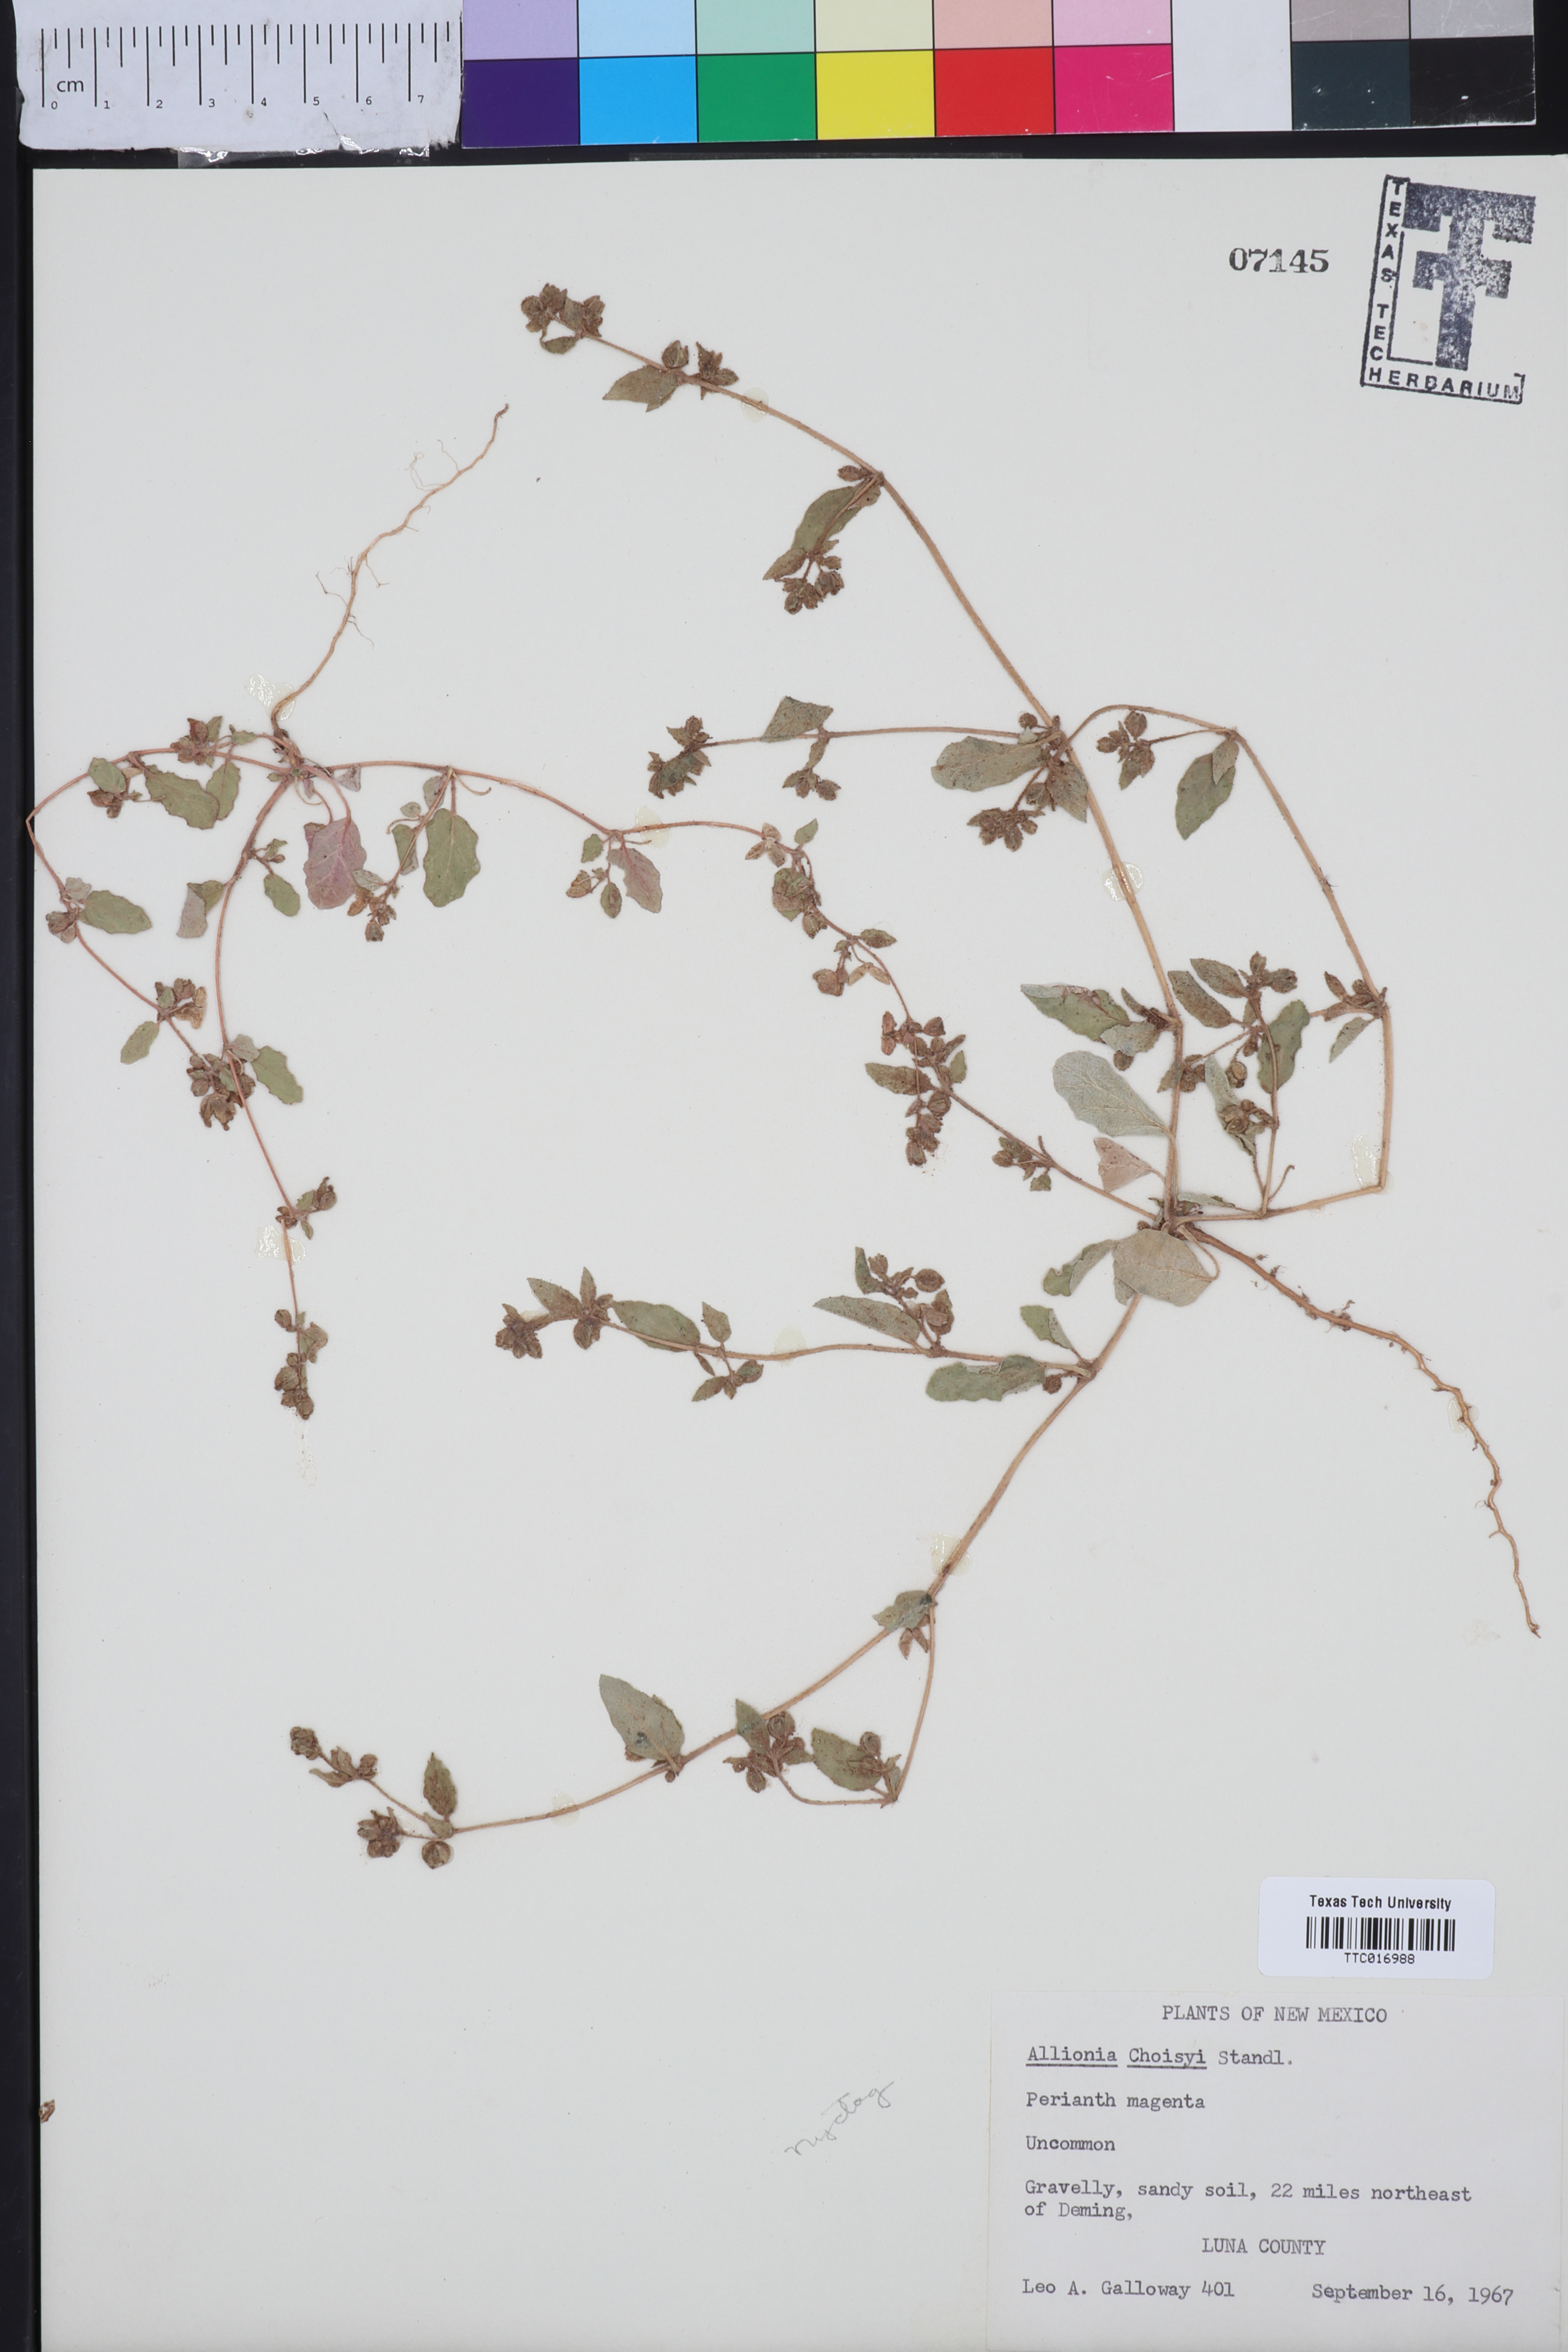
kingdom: Plantae
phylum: Tracheophyta
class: Magnoliopsida
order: Caryophyllales
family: Nyctaginaceae
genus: Allionia
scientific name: Allionia choisyi
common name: Trailing-four-o'clock
